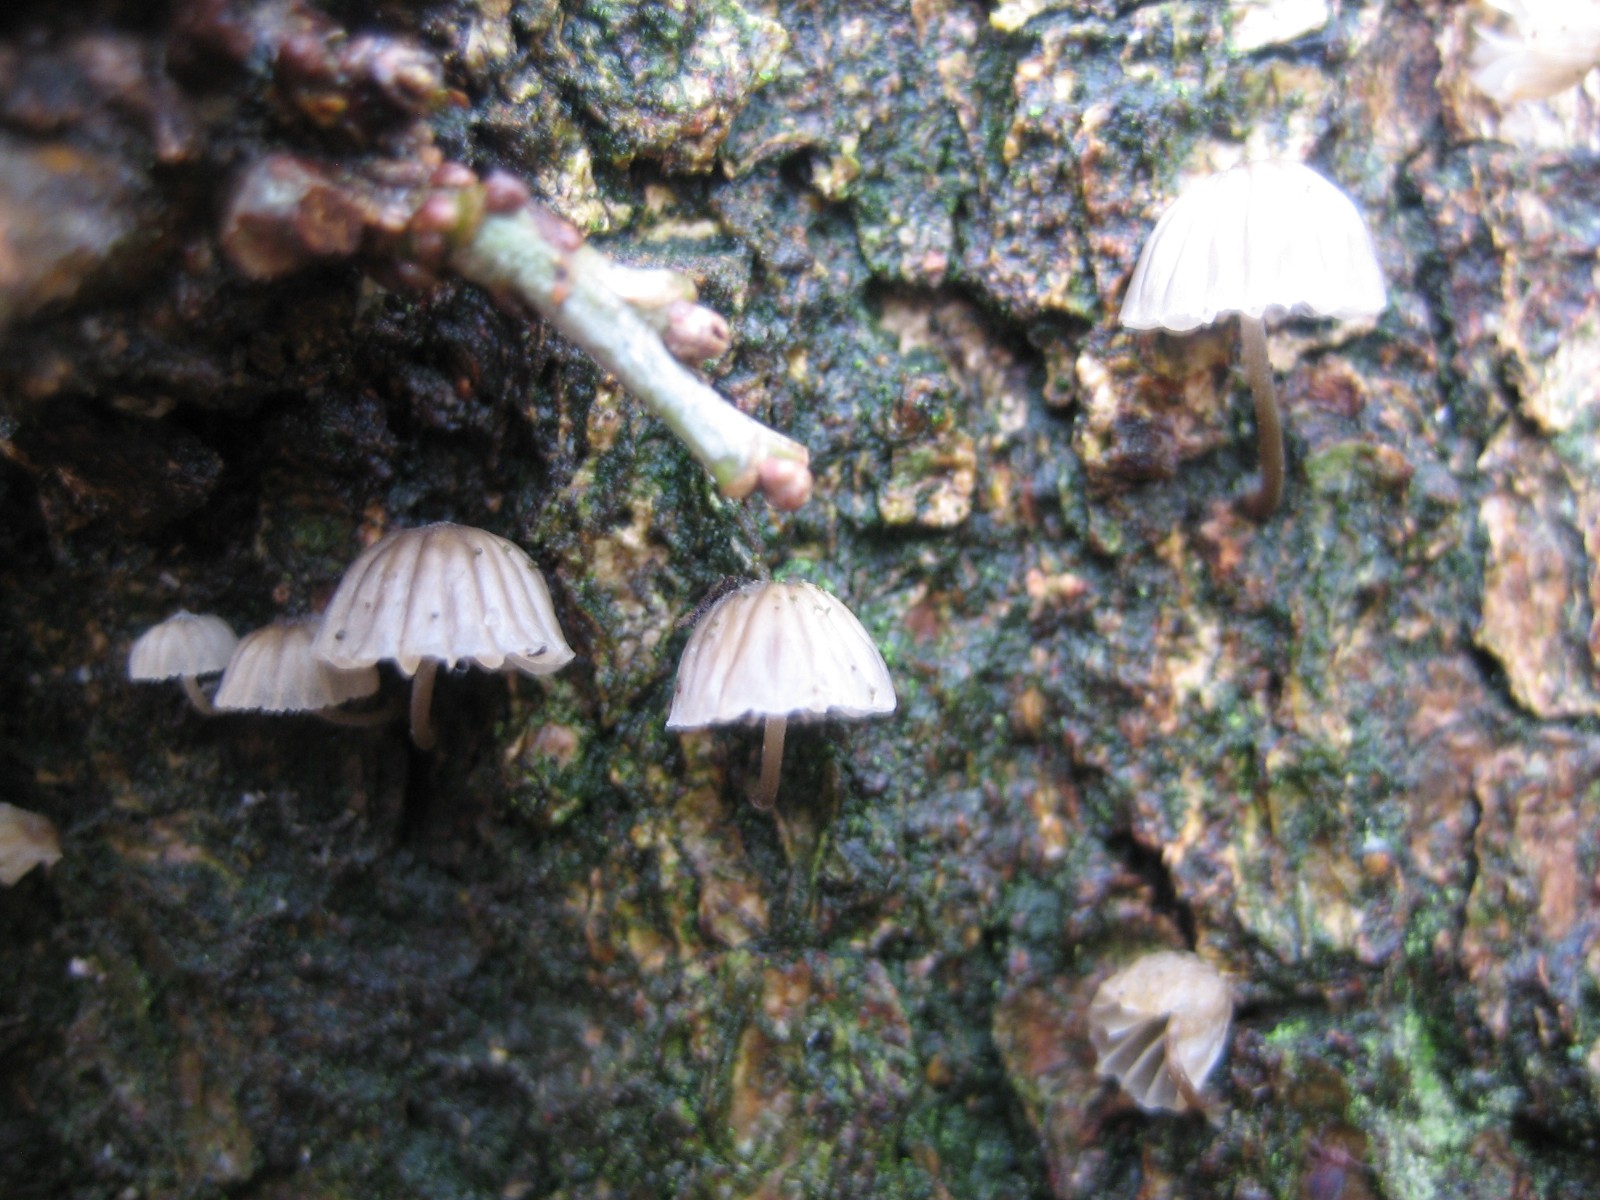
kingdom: Fungi
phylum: Basidiomycota
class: Agaricomycetes
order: Agaricales
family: Mycenaceae
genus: Mycena
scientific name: Mycena meliigena
